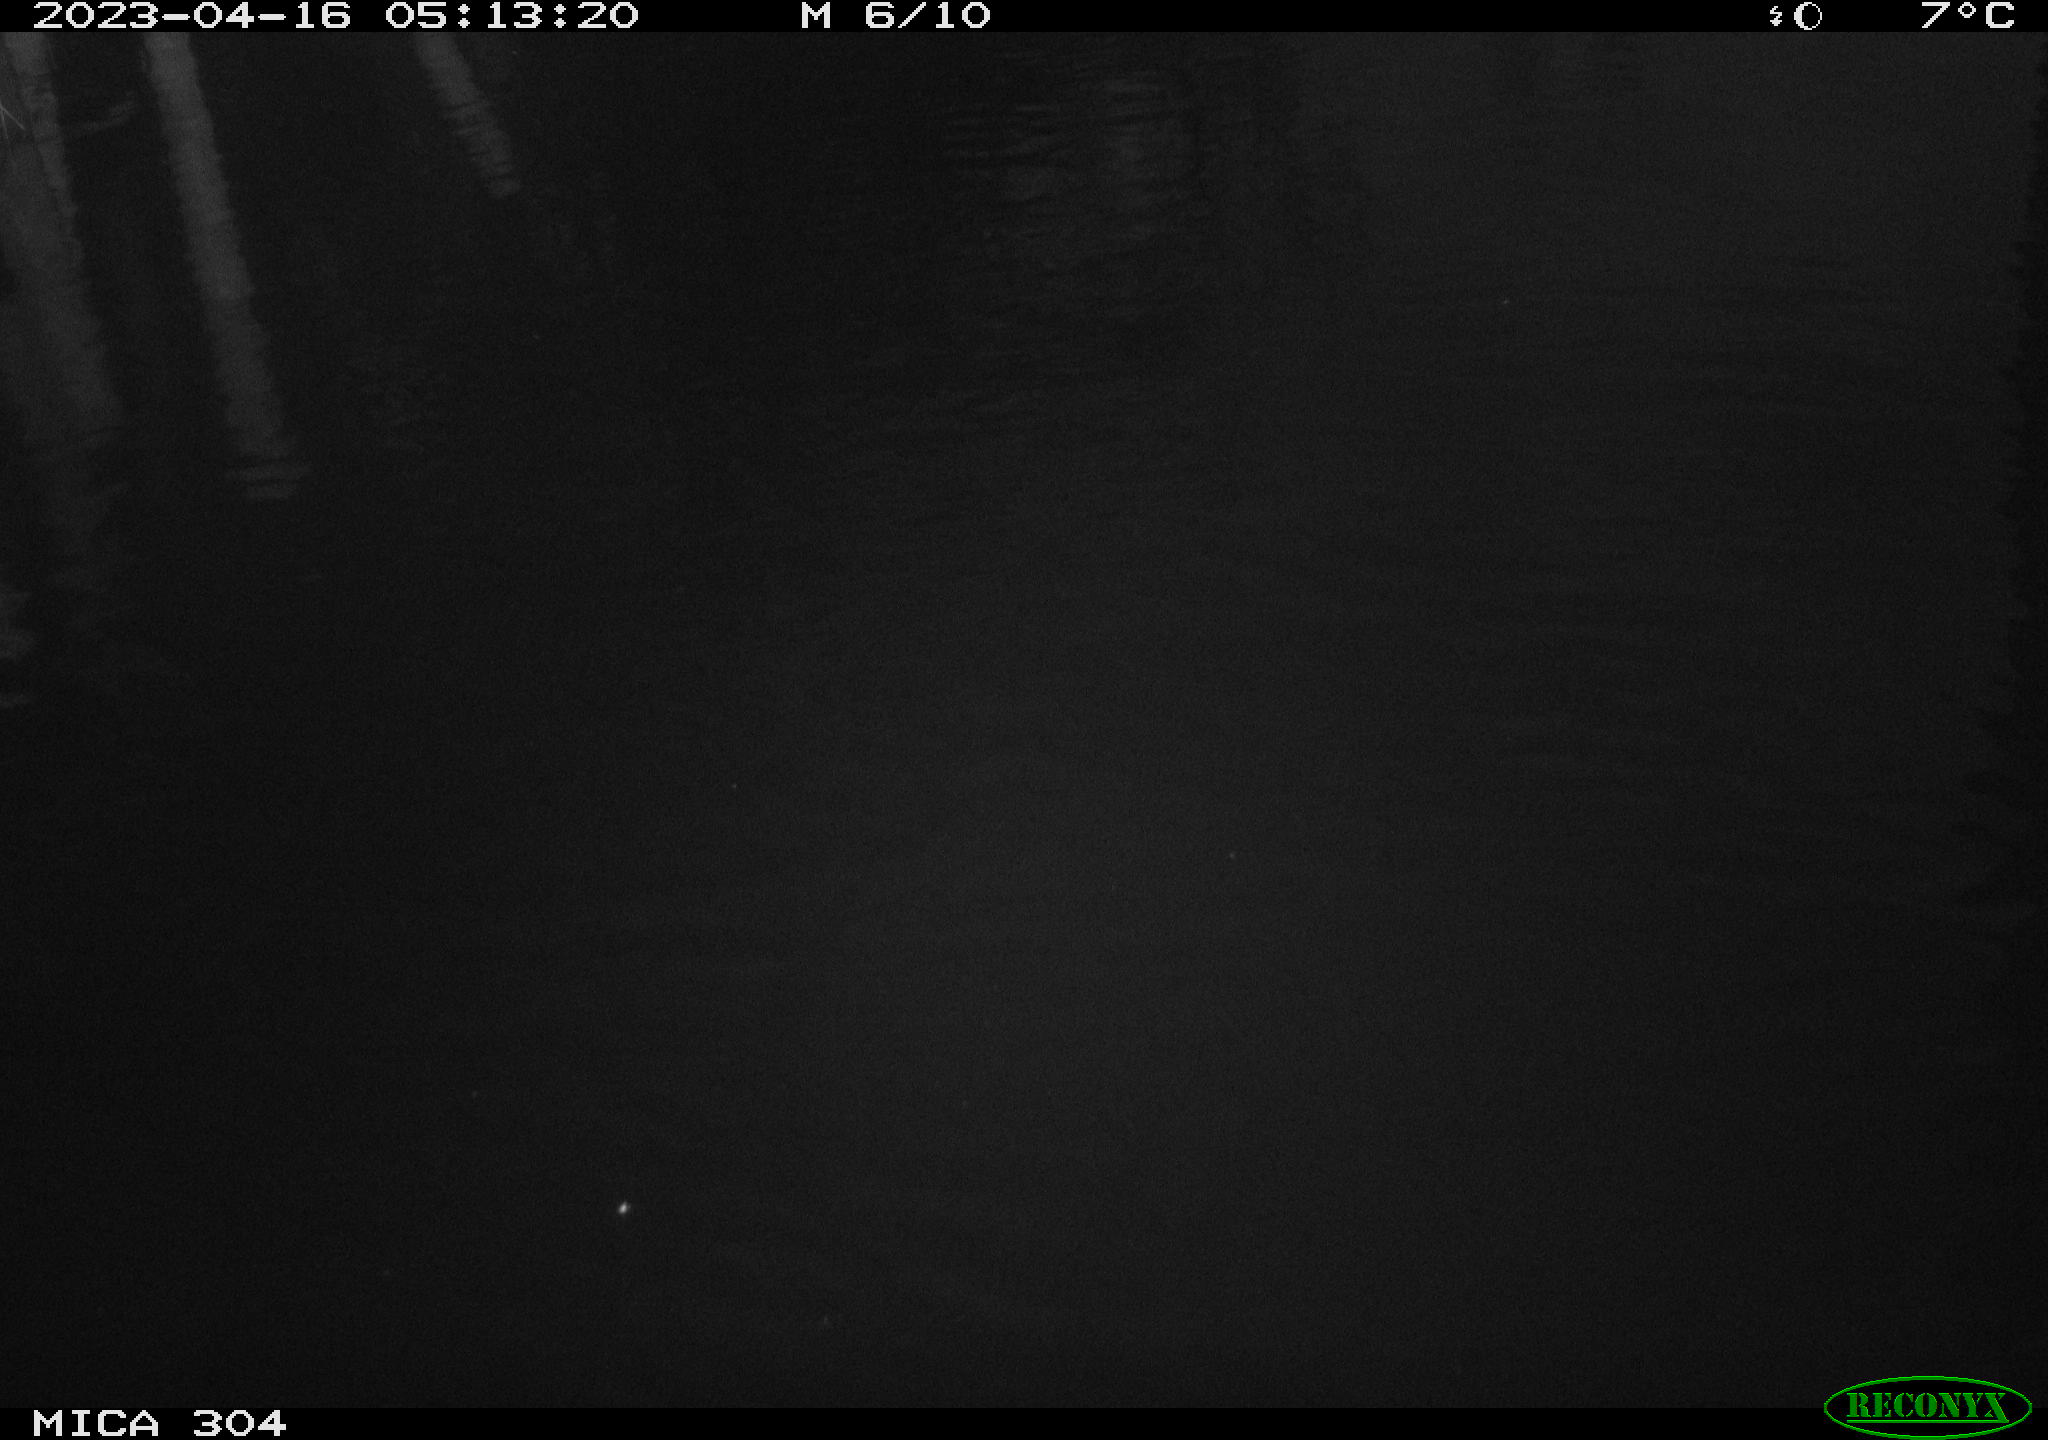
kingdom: Animalia
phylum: Chordata
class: Aves
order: Anseriformes
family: Anatidae
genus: Anas
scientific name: Anas
